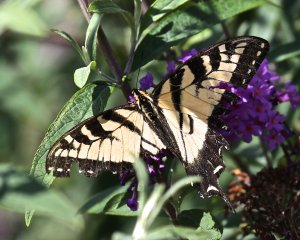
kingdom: Animalia
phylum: Arthropoda
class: Insecta
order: Lepidoptera
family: Papilionidae
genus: Pterourus
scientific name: Pterourus canadensis
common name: Canadian Tiger Swallowtail
